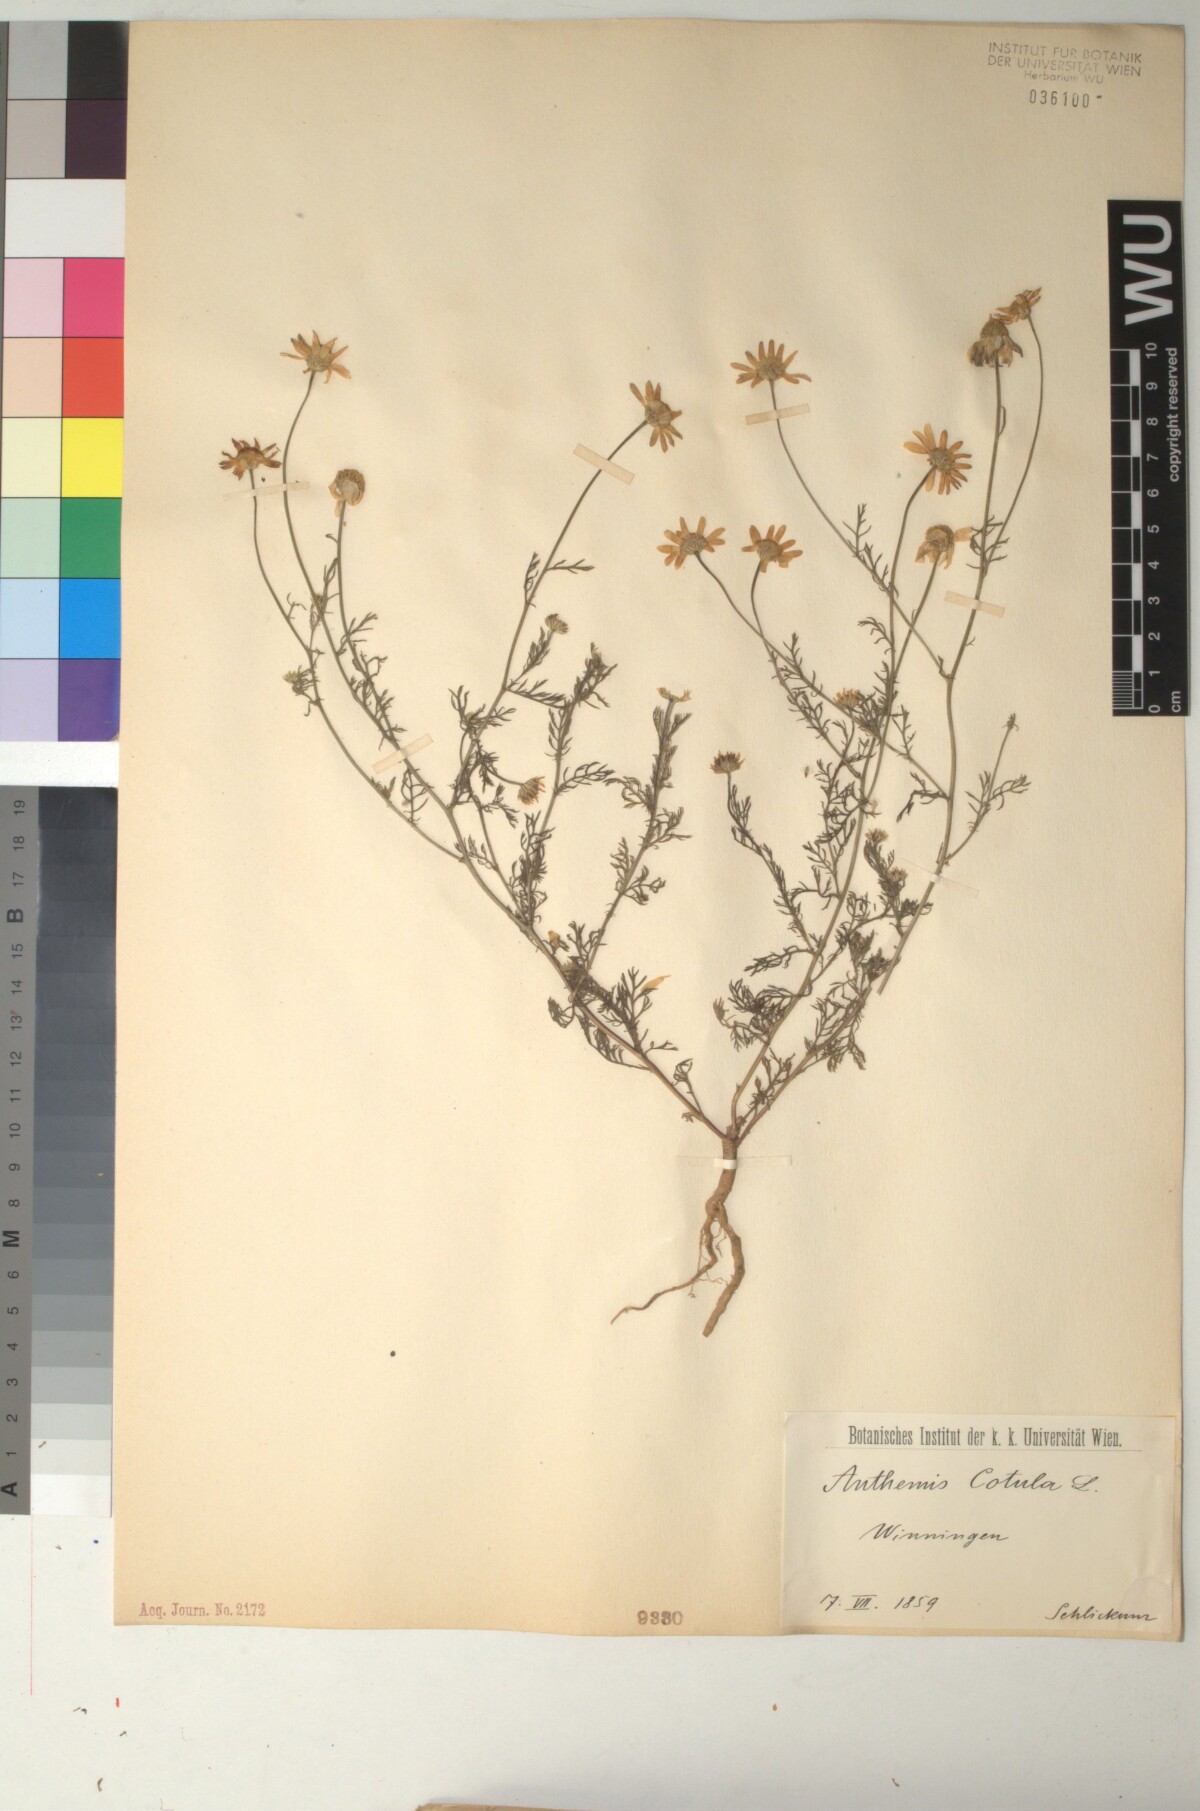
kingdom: Plantae
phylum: Tracheophyta
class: Magnoliopsida
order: Asterales
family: Asteraceae
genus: Anthemis
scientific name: Anthemis cotula
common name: Stinking chamomile
